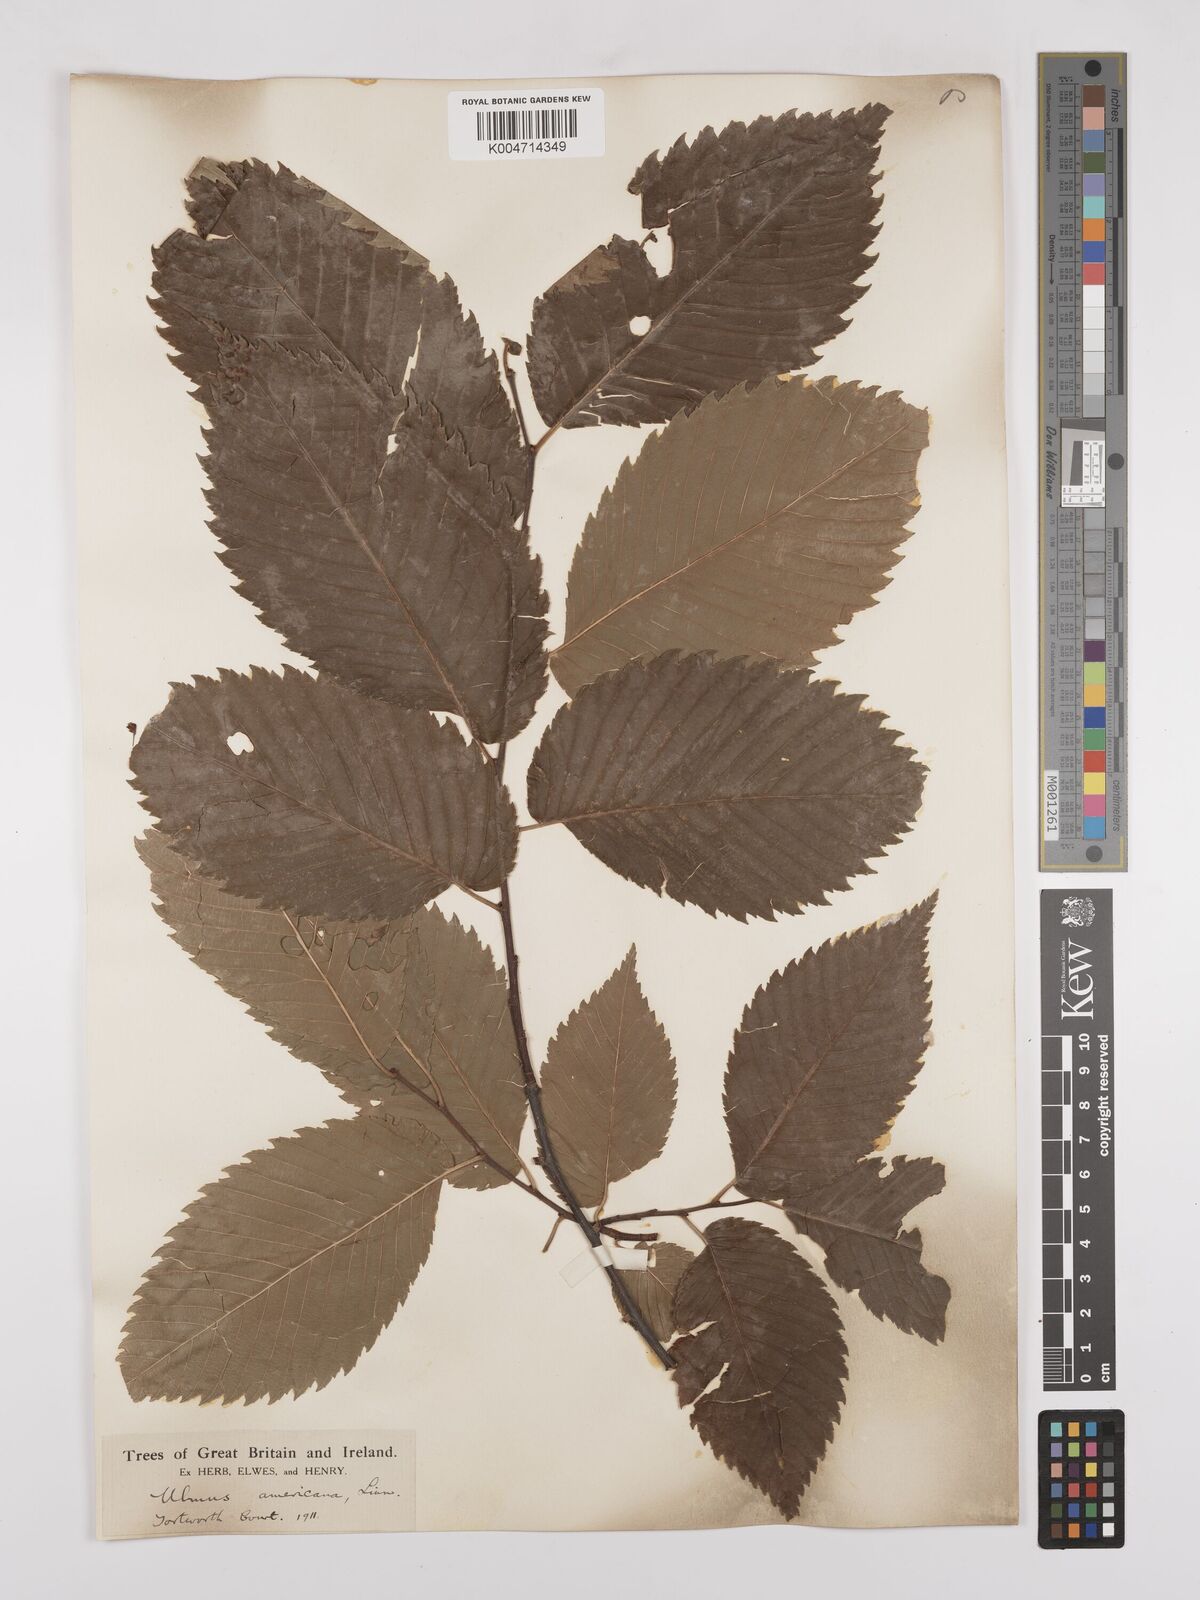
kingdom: Plantae
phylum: Tracheophyta
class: Magnoliopsida
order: Rosales
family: Ulmaceae
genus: Ulmus
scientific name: Ulmus americana
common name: American elm
